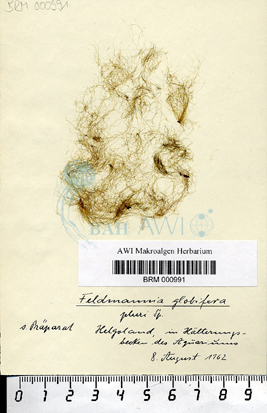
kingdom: Chromista
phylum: Ochrophyta
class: Phaeophyceae
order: Ectocarpales
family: Acinetosporaceae
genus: Feldmannia
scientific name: Feldmannia globifera
